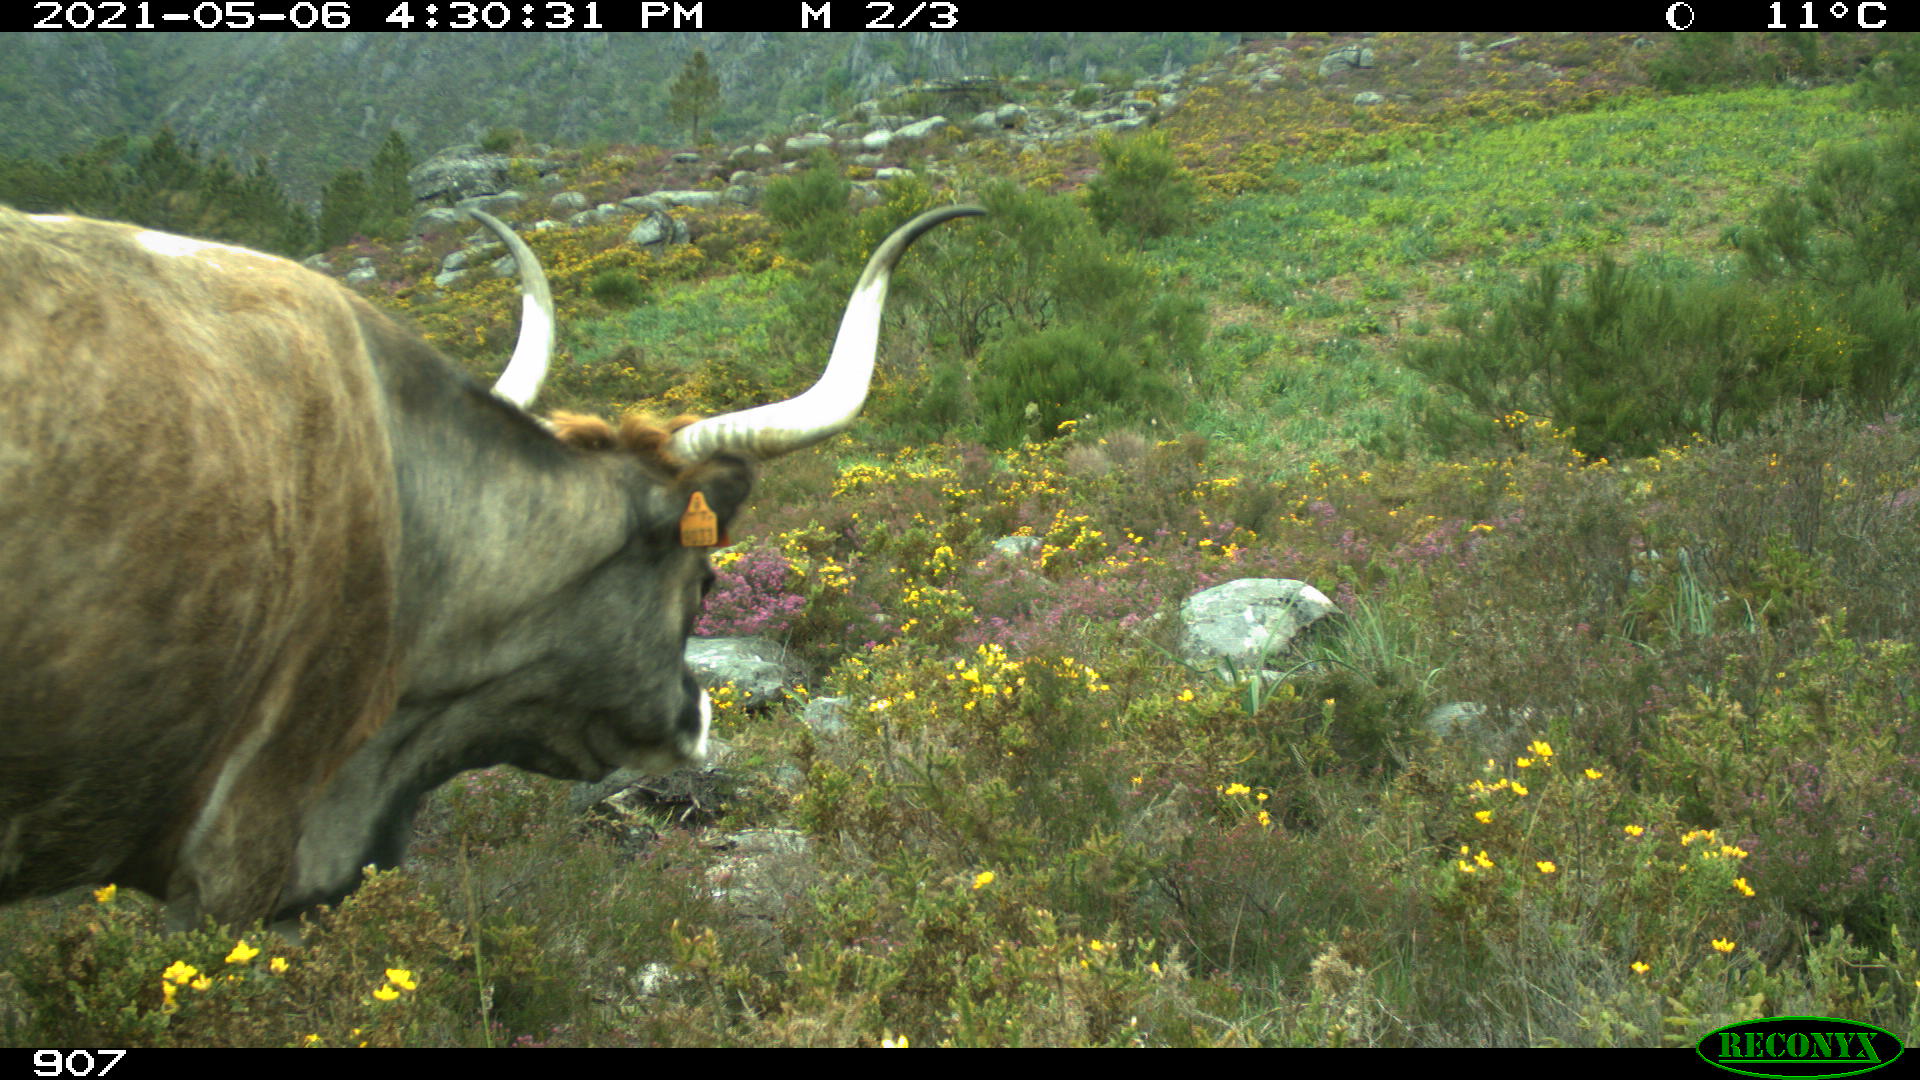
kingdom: Animalia
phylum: Chordata
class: Mammalia
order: Artiodactyla
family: Bovidae
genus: Bos
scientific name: Bos taurus
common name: Domesticated cattle
